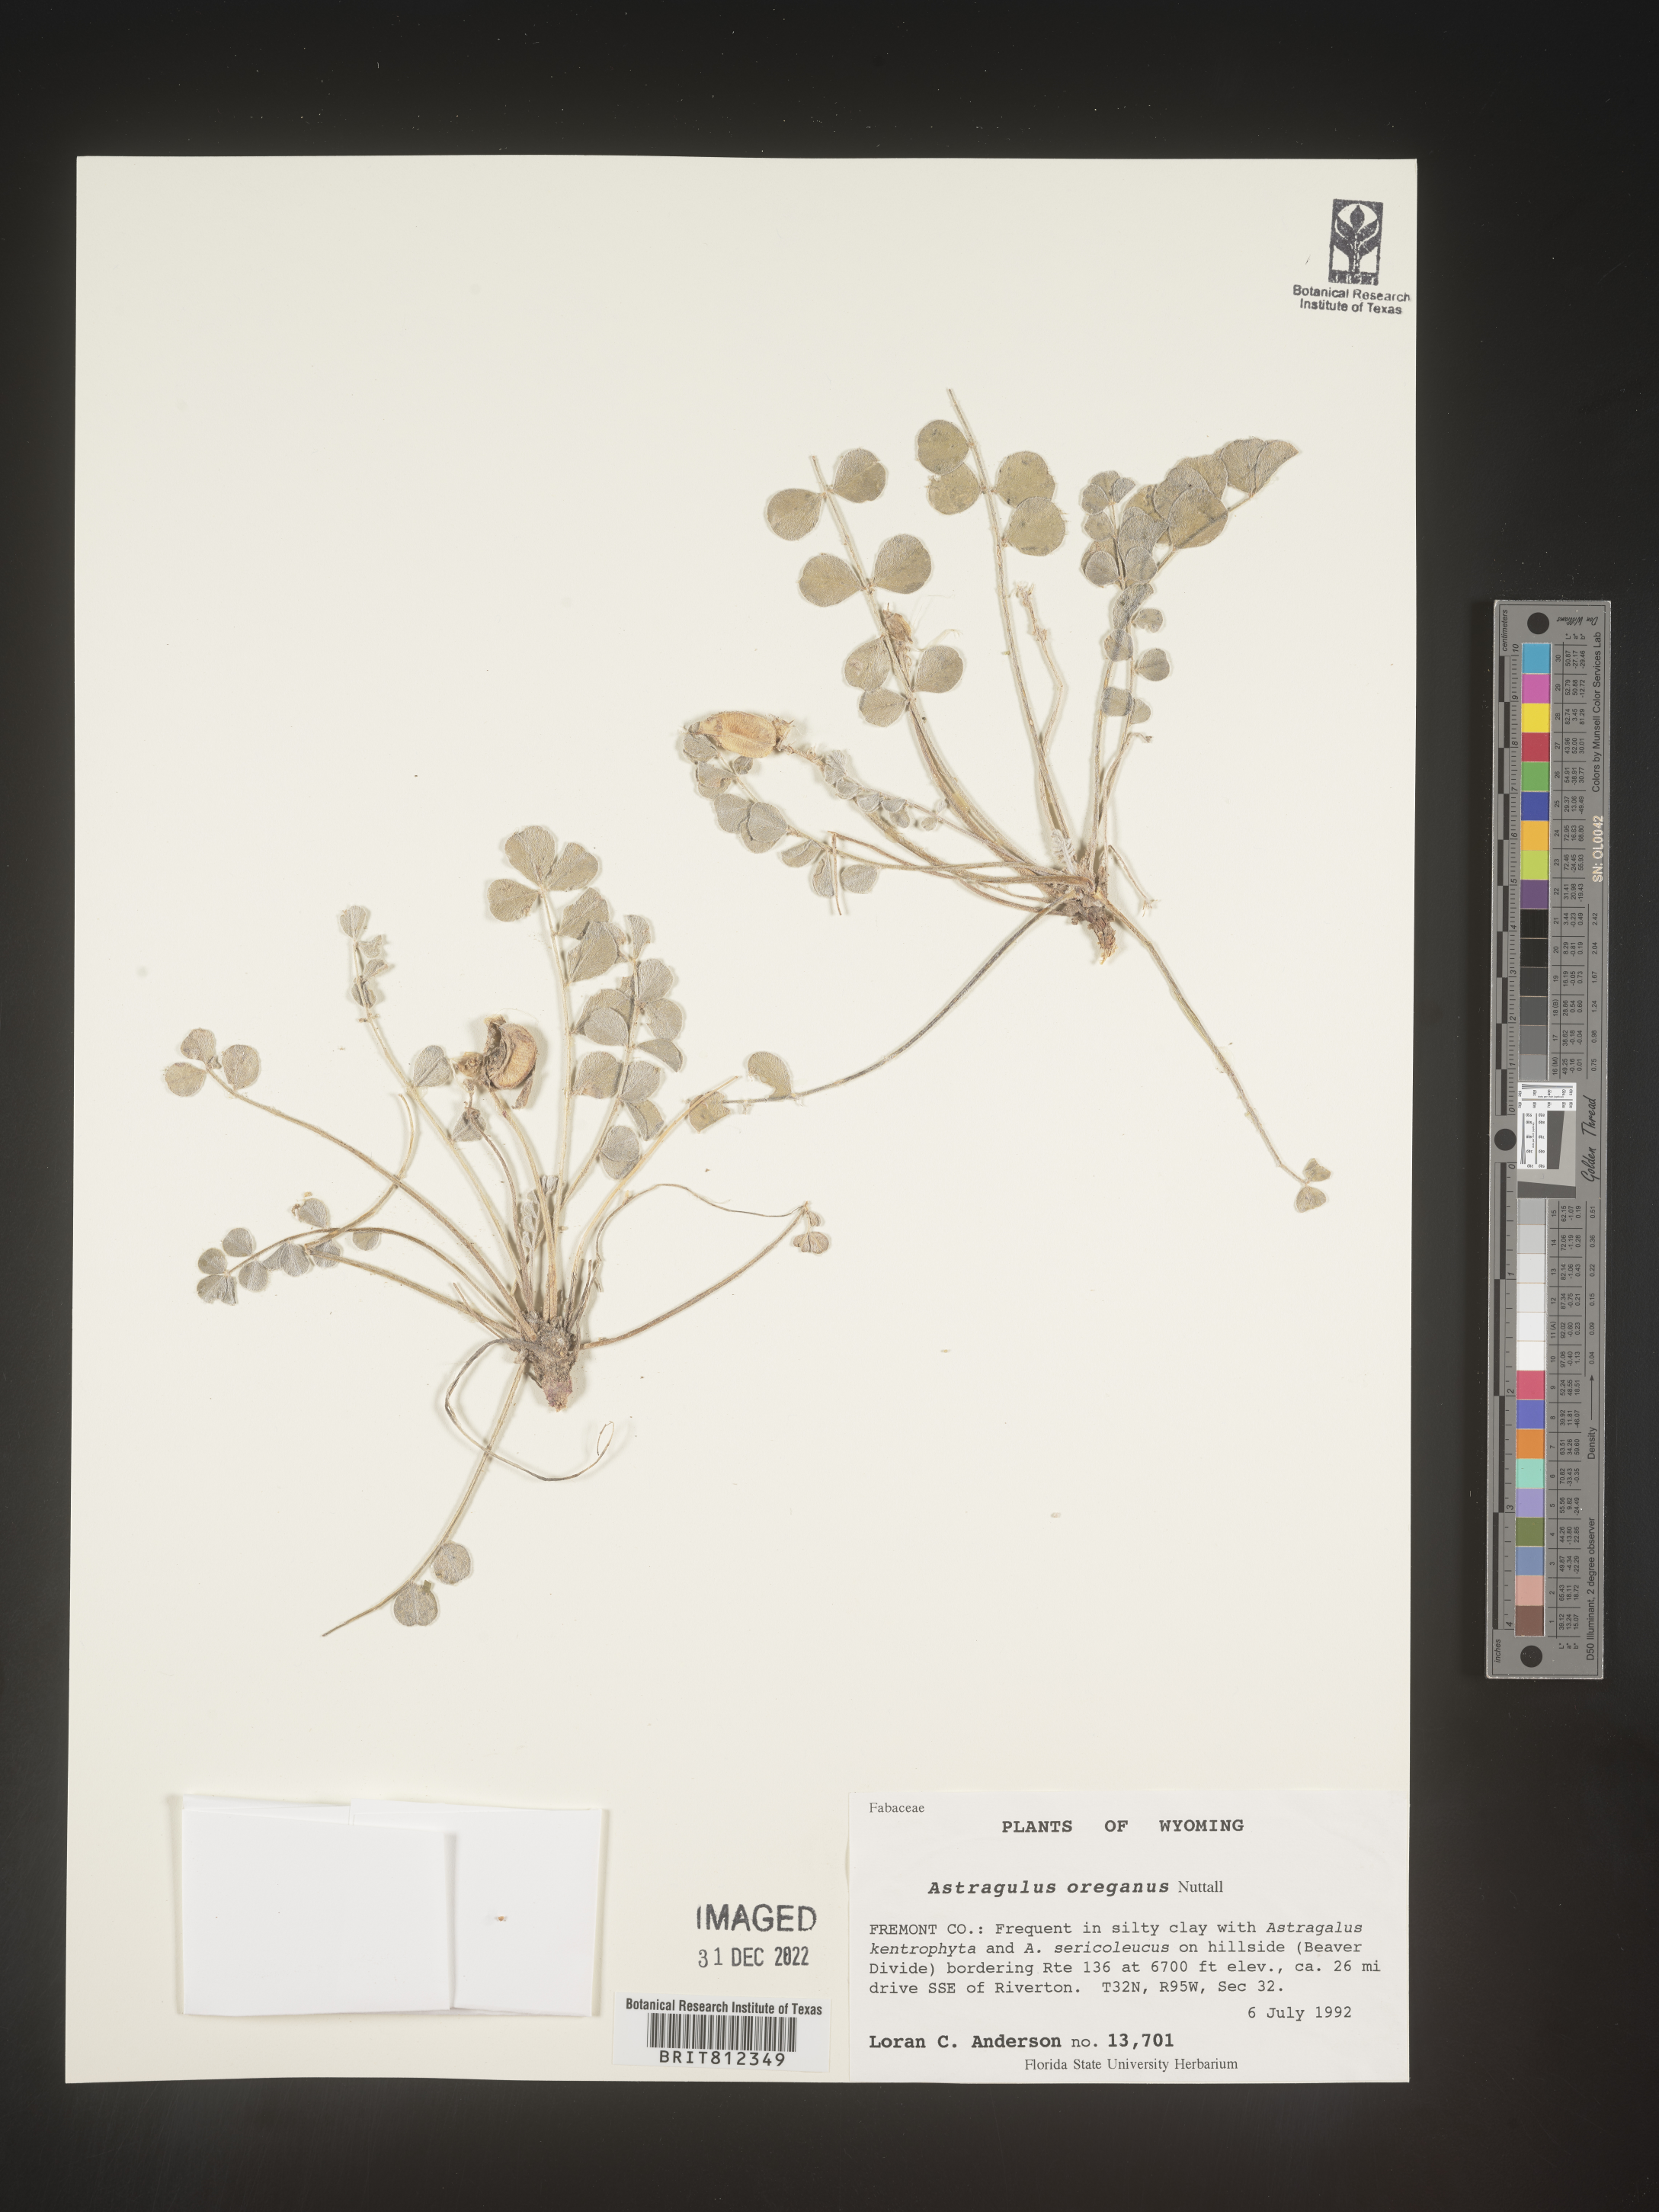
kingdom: Plantae
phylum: Tracheophyta
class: Magnoliopsida
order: Fabales
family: Fabaceae
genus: Astragalus
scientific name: Astragalus
